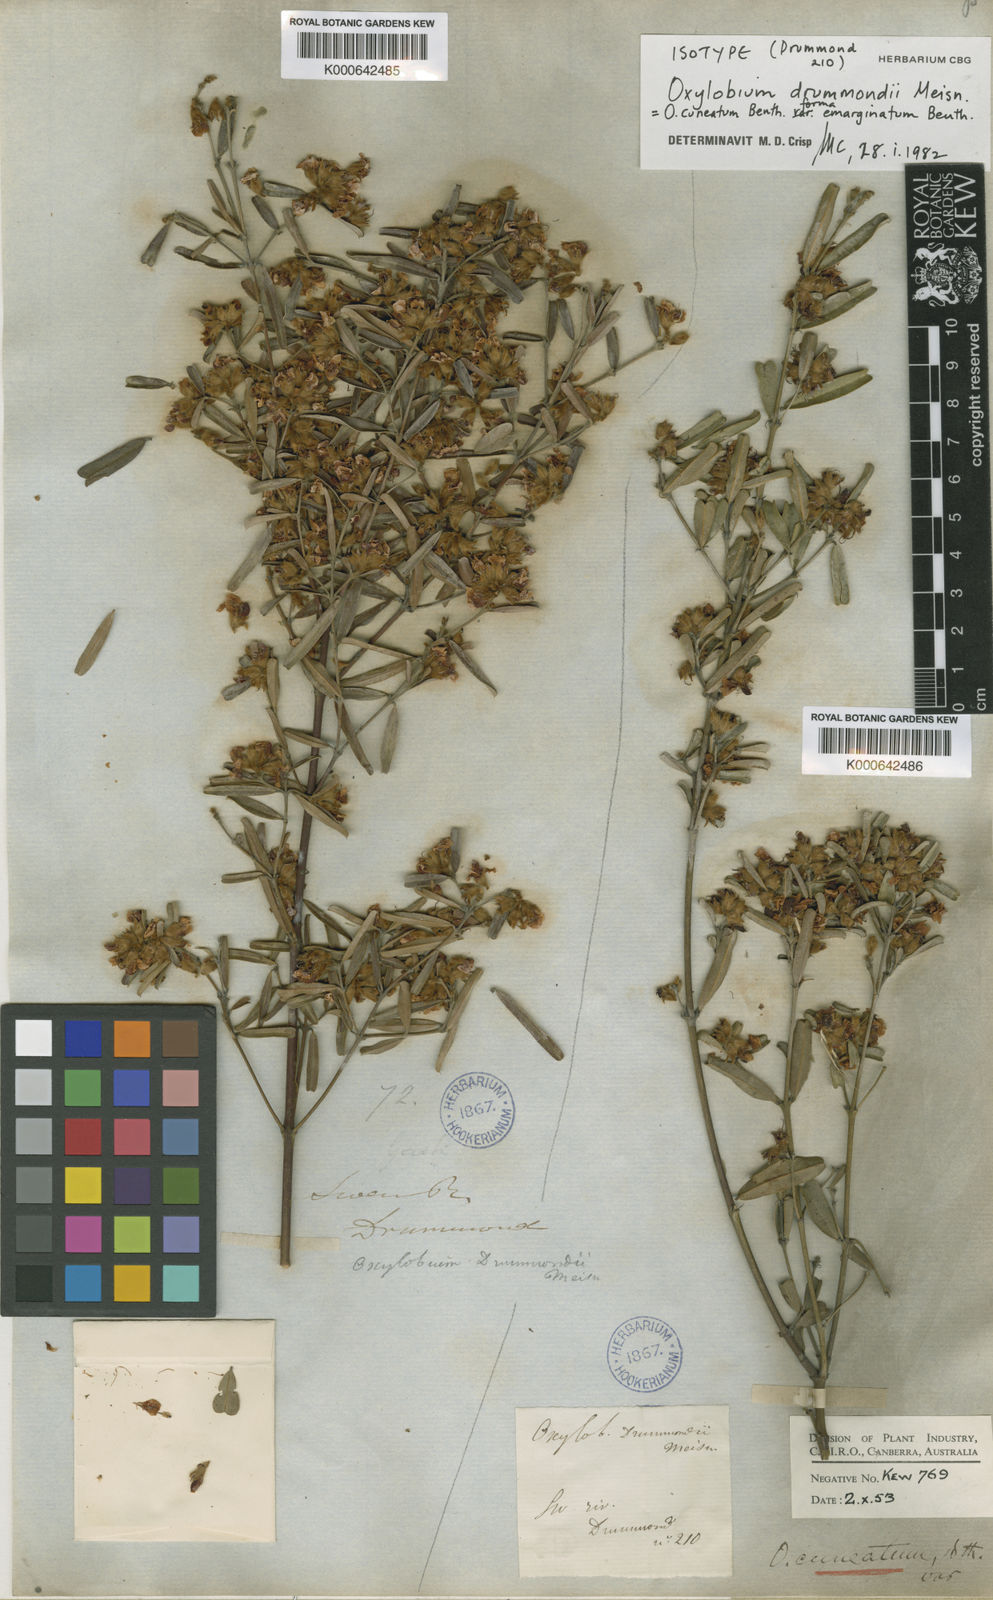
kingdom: Plantae
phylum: Tracheophyta
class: Magnoliopsida
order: Fabales
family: Fabaceae
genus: Gastrolobium
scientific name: Gastrolobium retusum
